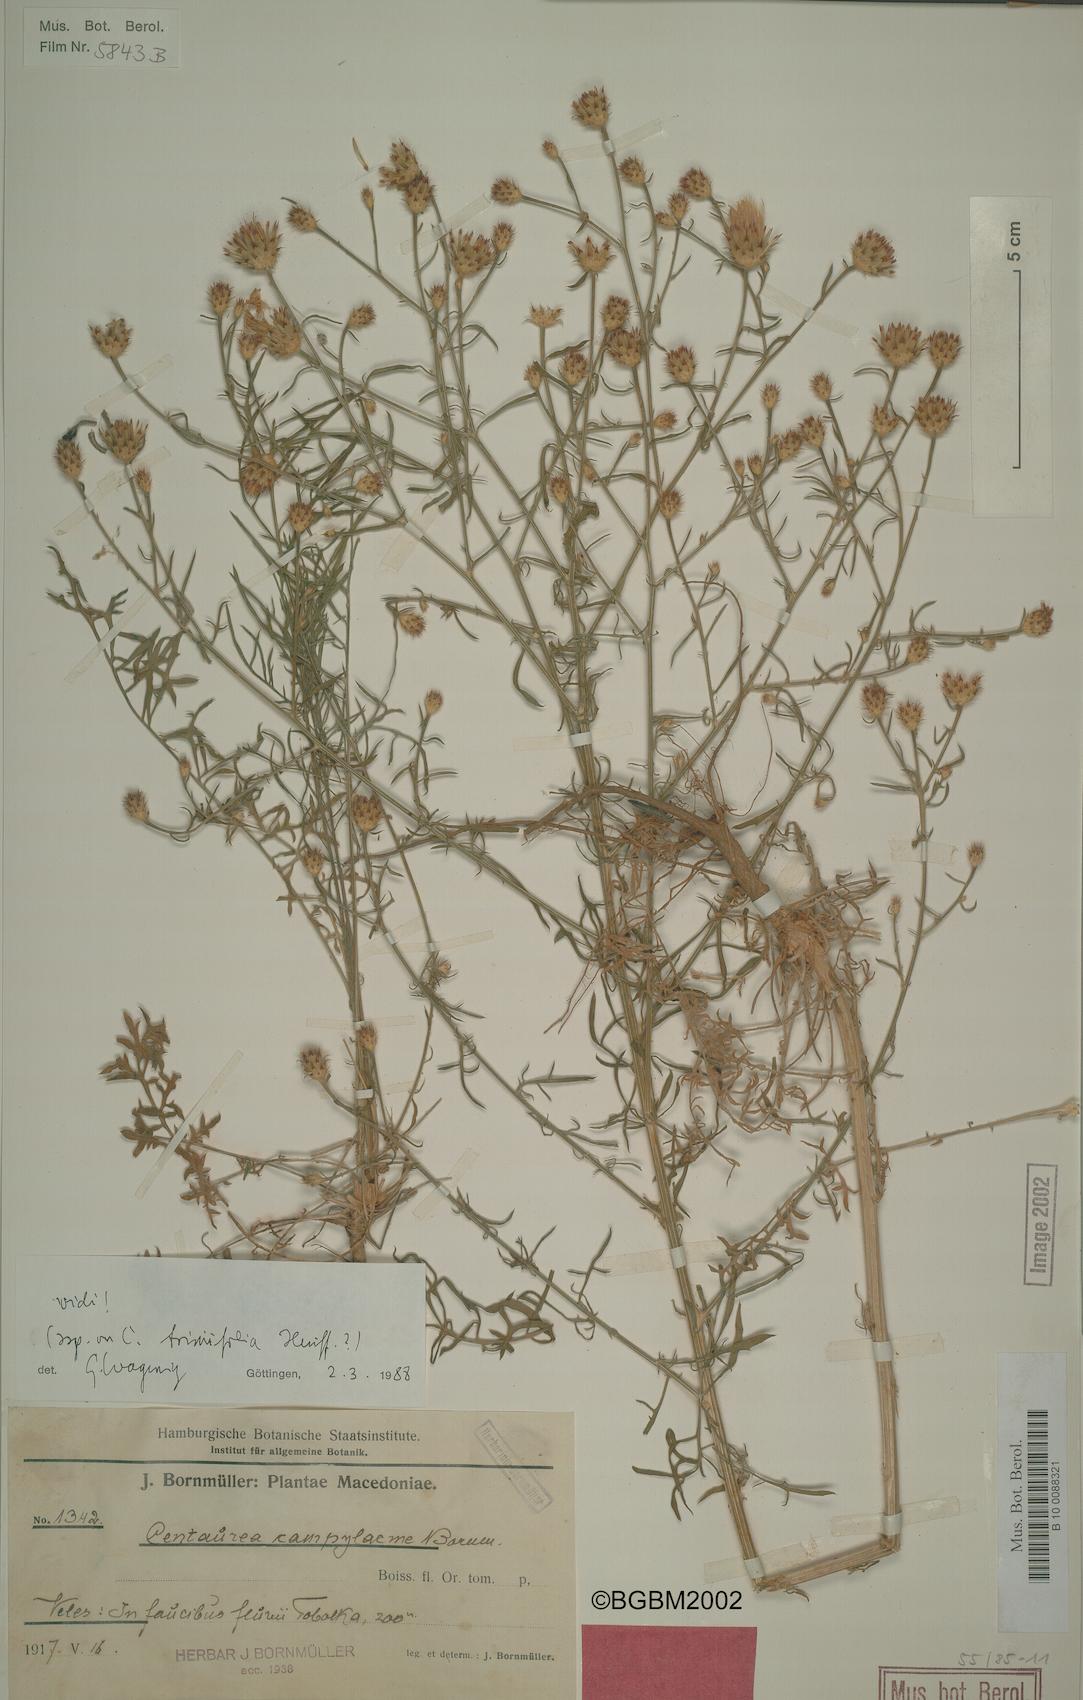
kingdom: Plantae
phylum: Tracheophyta
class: Magnoliopsida
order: Asterales
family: Asteraceae
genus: Centaurea
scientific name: Centaurea triniifolia
